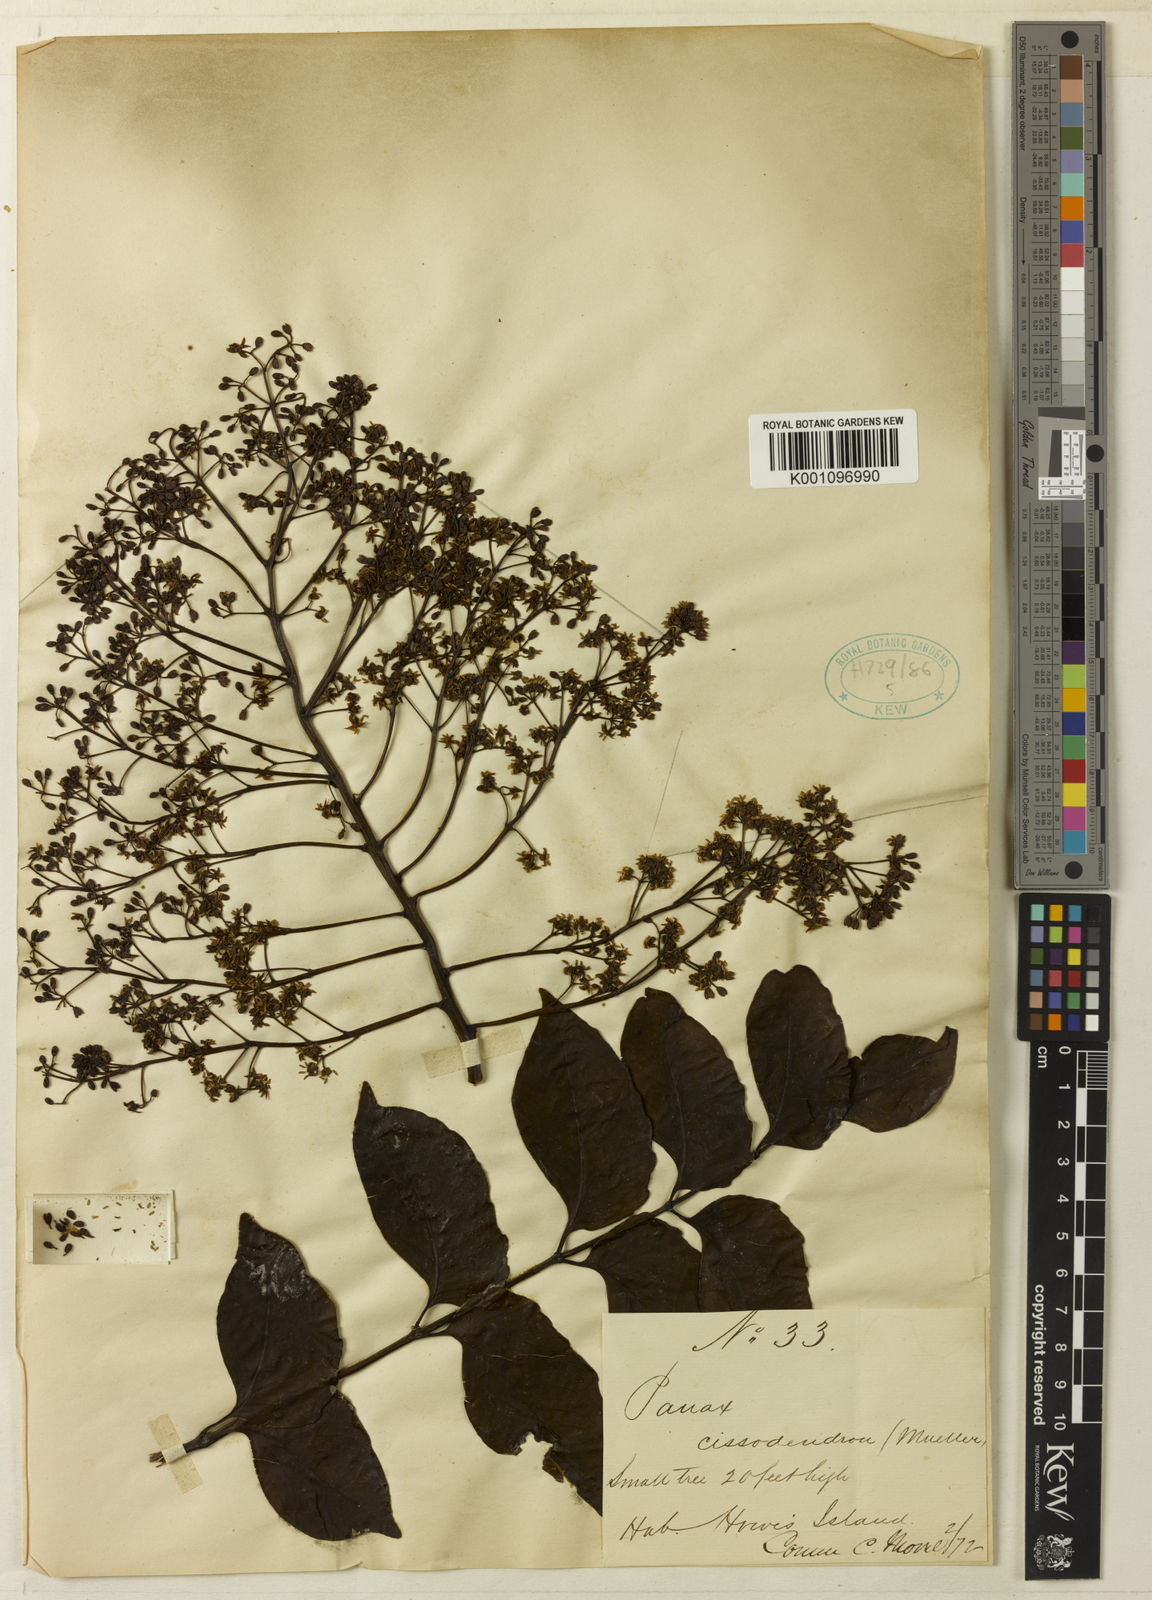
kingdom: Plantae
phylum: Tracheophyta
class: Magnoliopsida
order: Apiales
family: Araliaceae
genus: Polyscias
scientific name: Polyscias cissodendron
